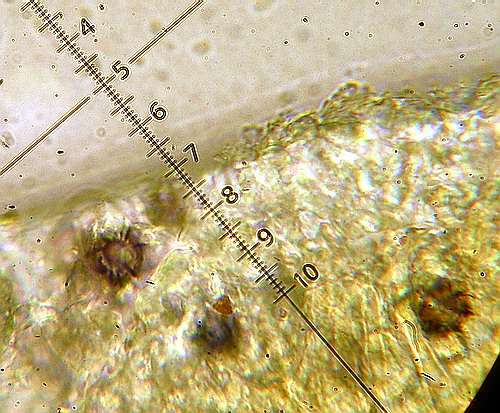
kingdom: Fungi
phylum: Basidiomycota
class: Agaricomycetes
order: Russulales
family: Russulaceae
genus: Lactarius
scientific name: Lactarius pterosporus
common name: vingesporet mælkehat
